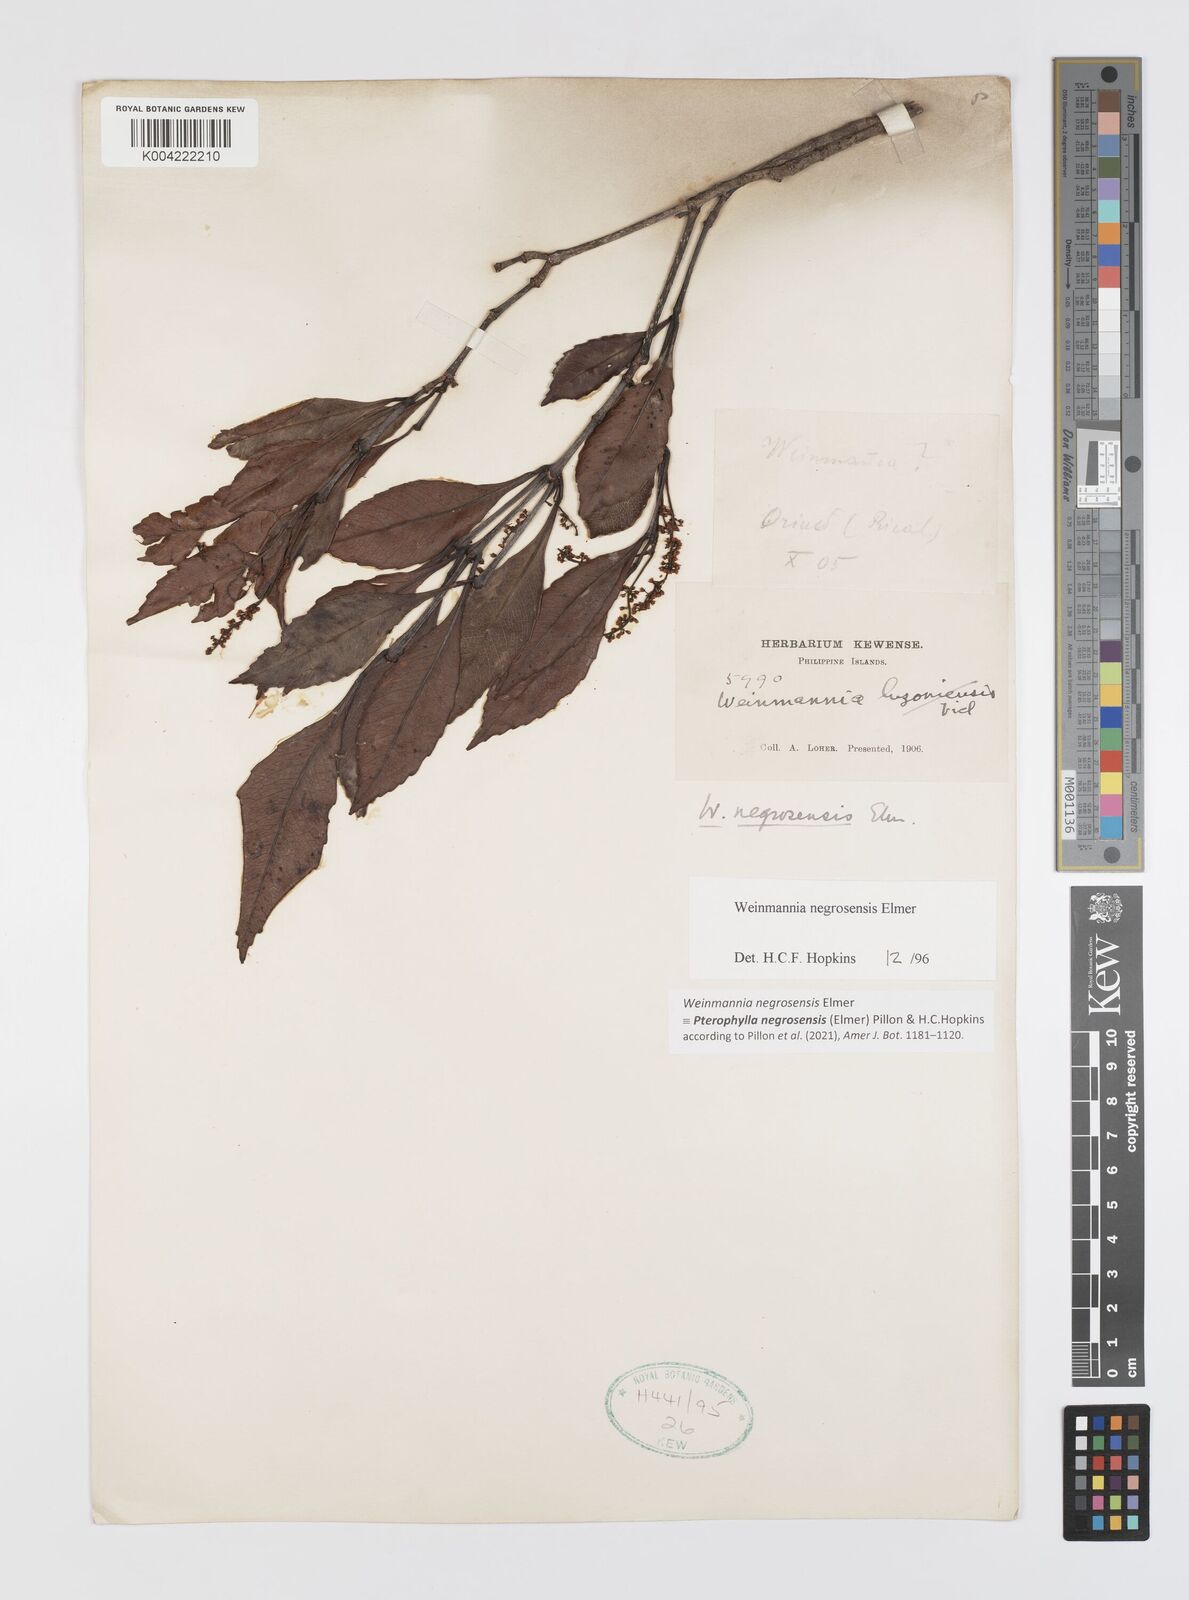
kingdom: Plantae
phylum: Tracheophyta
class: Magnoliopsida
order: Oxalidales
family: Cunoniaceae
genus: Pterophylla
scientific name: Pterophylla negrosensis
